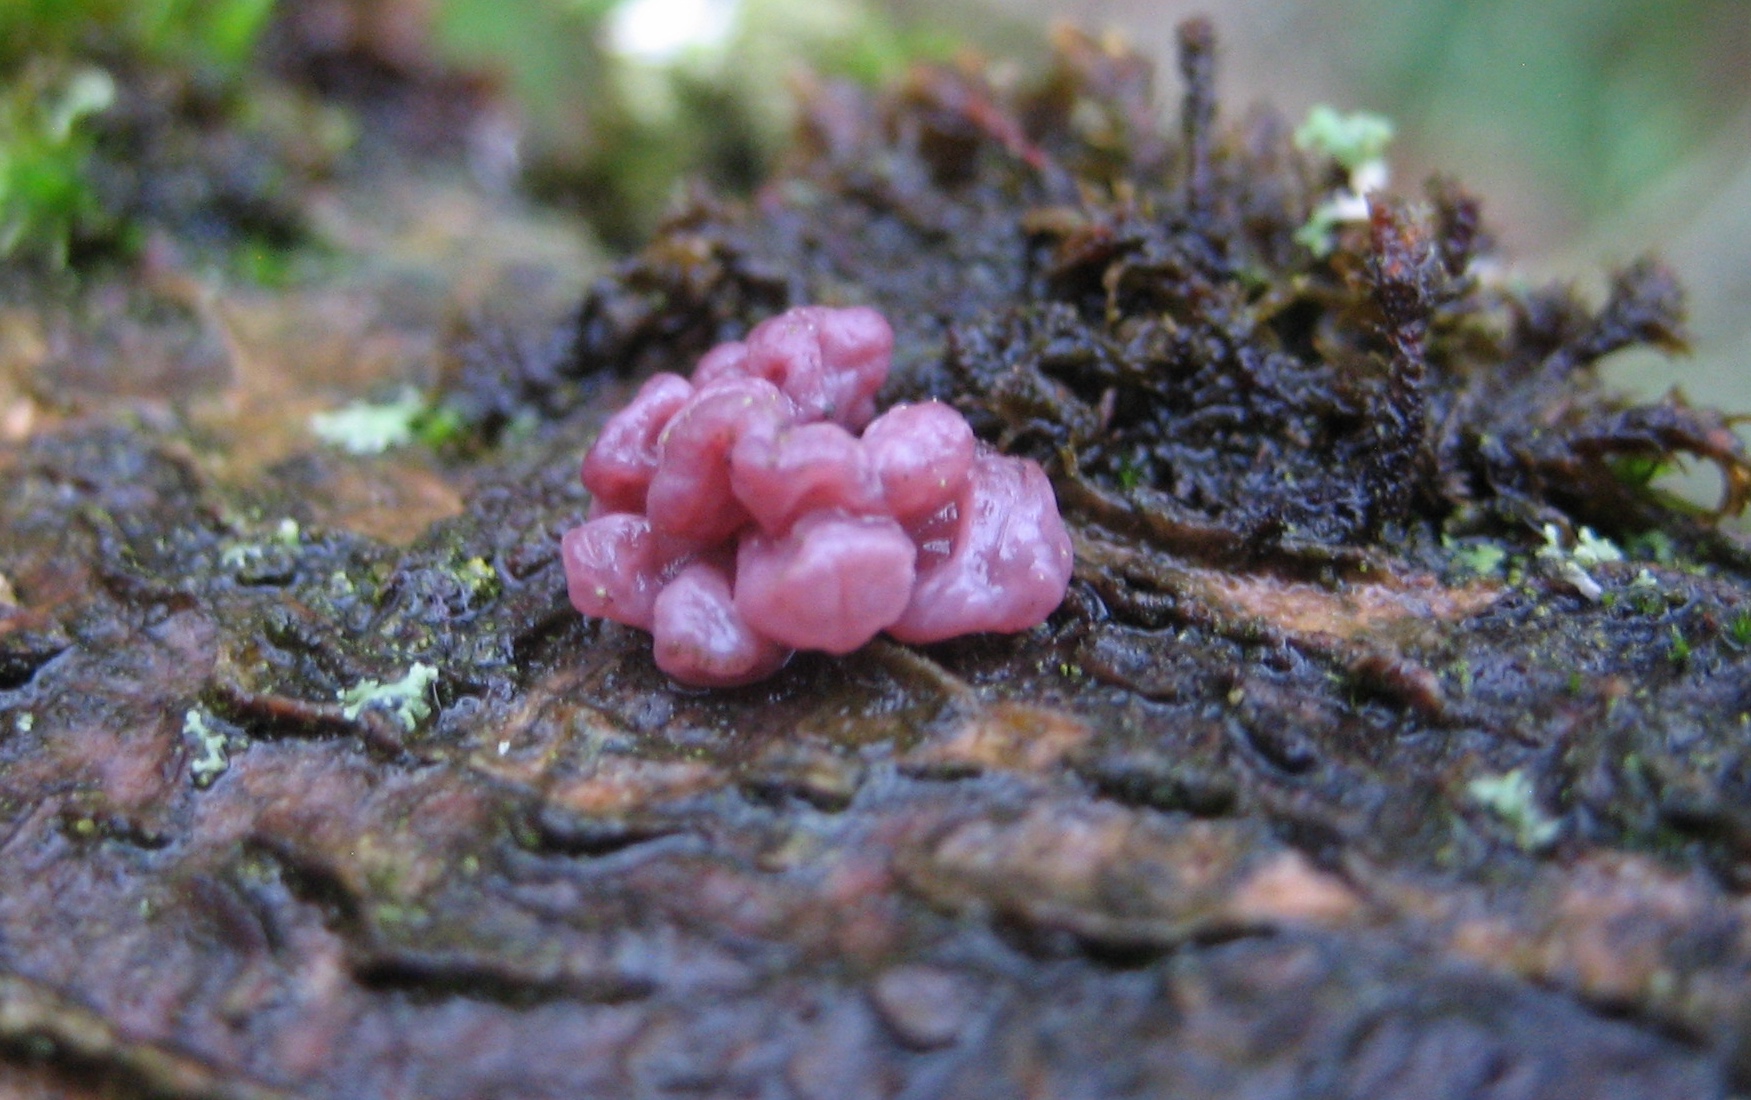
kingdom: Fungi
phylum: Ascomycota
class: Leotiomycetes
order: Helotiales
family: Gelatinodiscaceae
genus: Ascocoryne
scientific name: Ascocoryne sarcoides
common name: rødlilla sejskive
